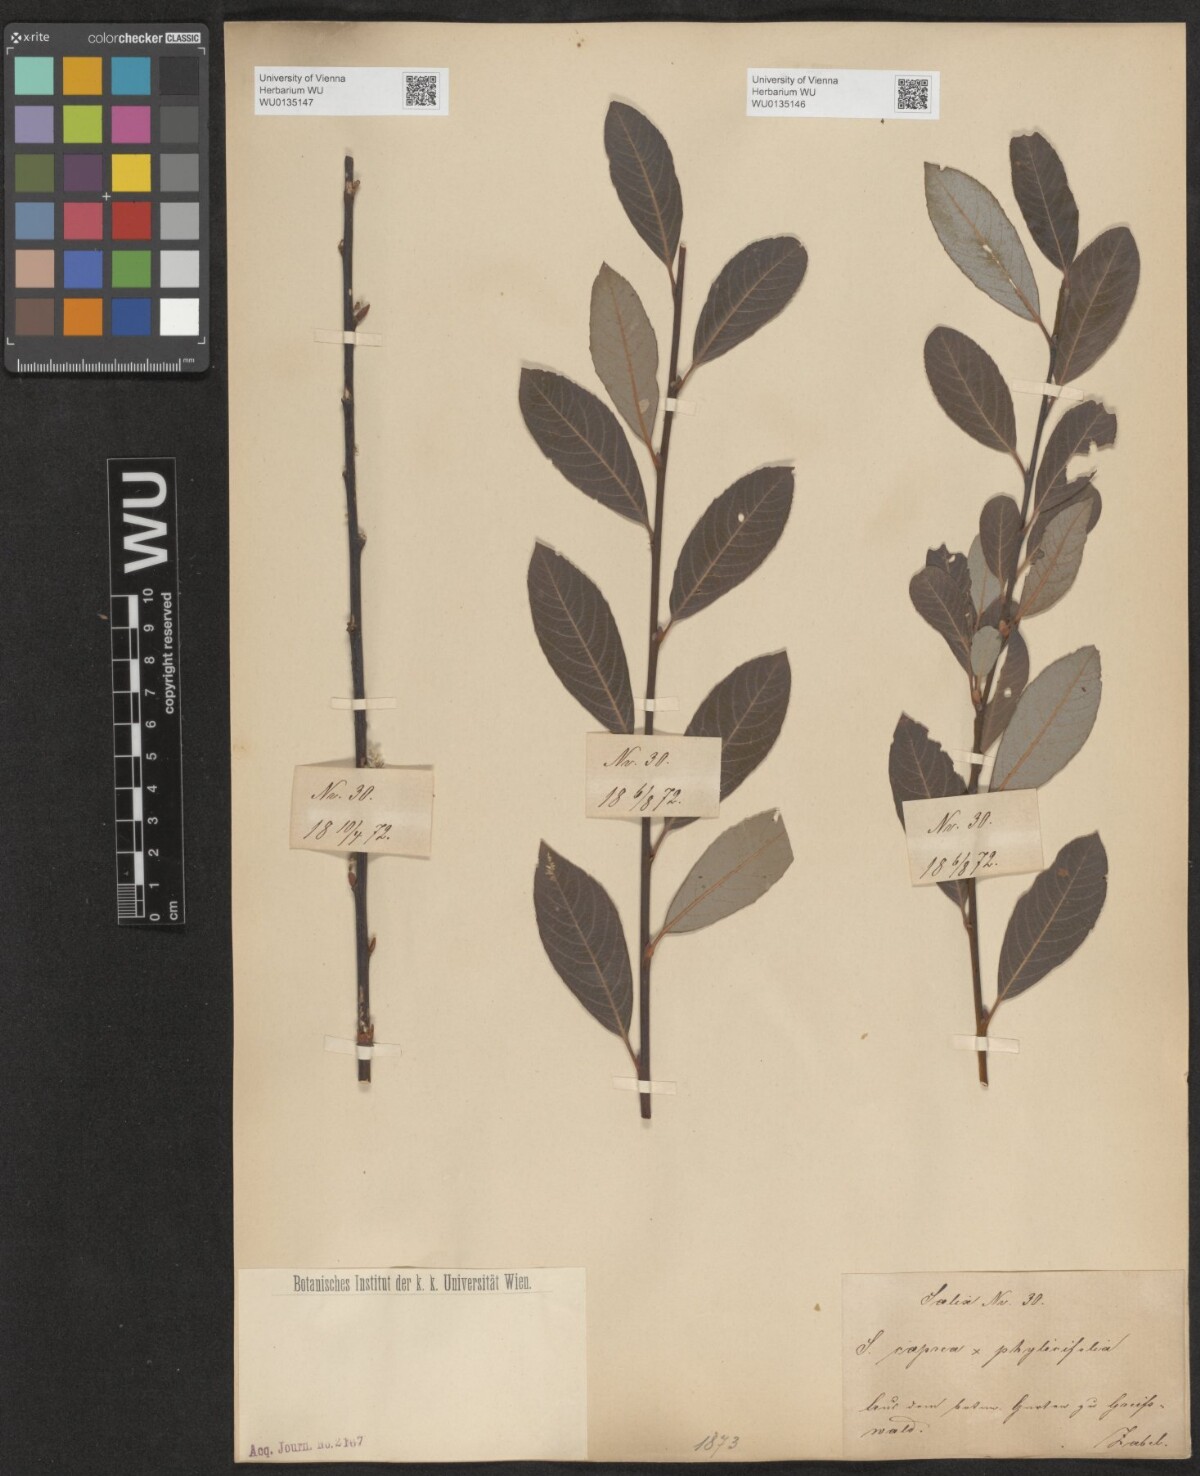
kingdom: Plantae
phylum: Tracheophyta
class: Magnoliopsida
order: Malpighiales
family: Salicaceae
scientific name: Salicaceae
